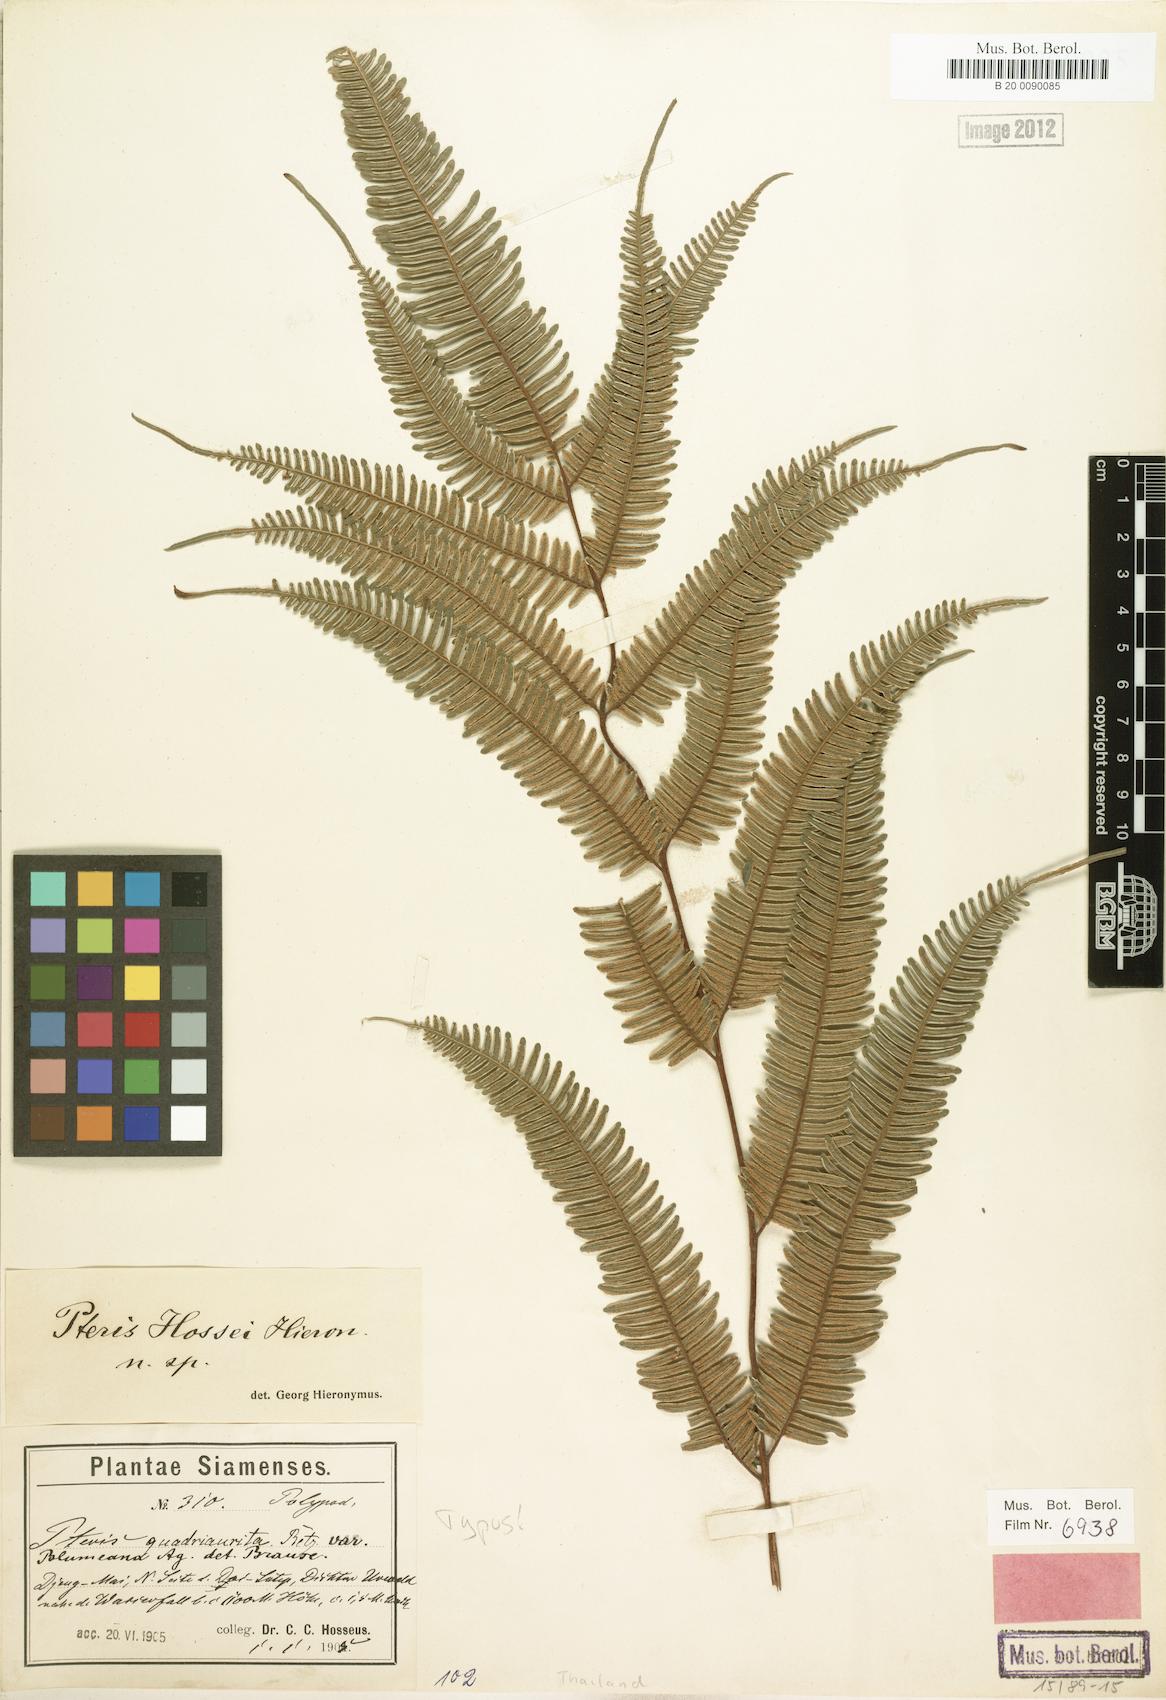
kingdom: Plantae
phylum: Tracheophyta
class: Polypodiopsida
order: Polypodiales
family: Pteridaceae
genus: Pteris
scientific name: Pteris decrescens
